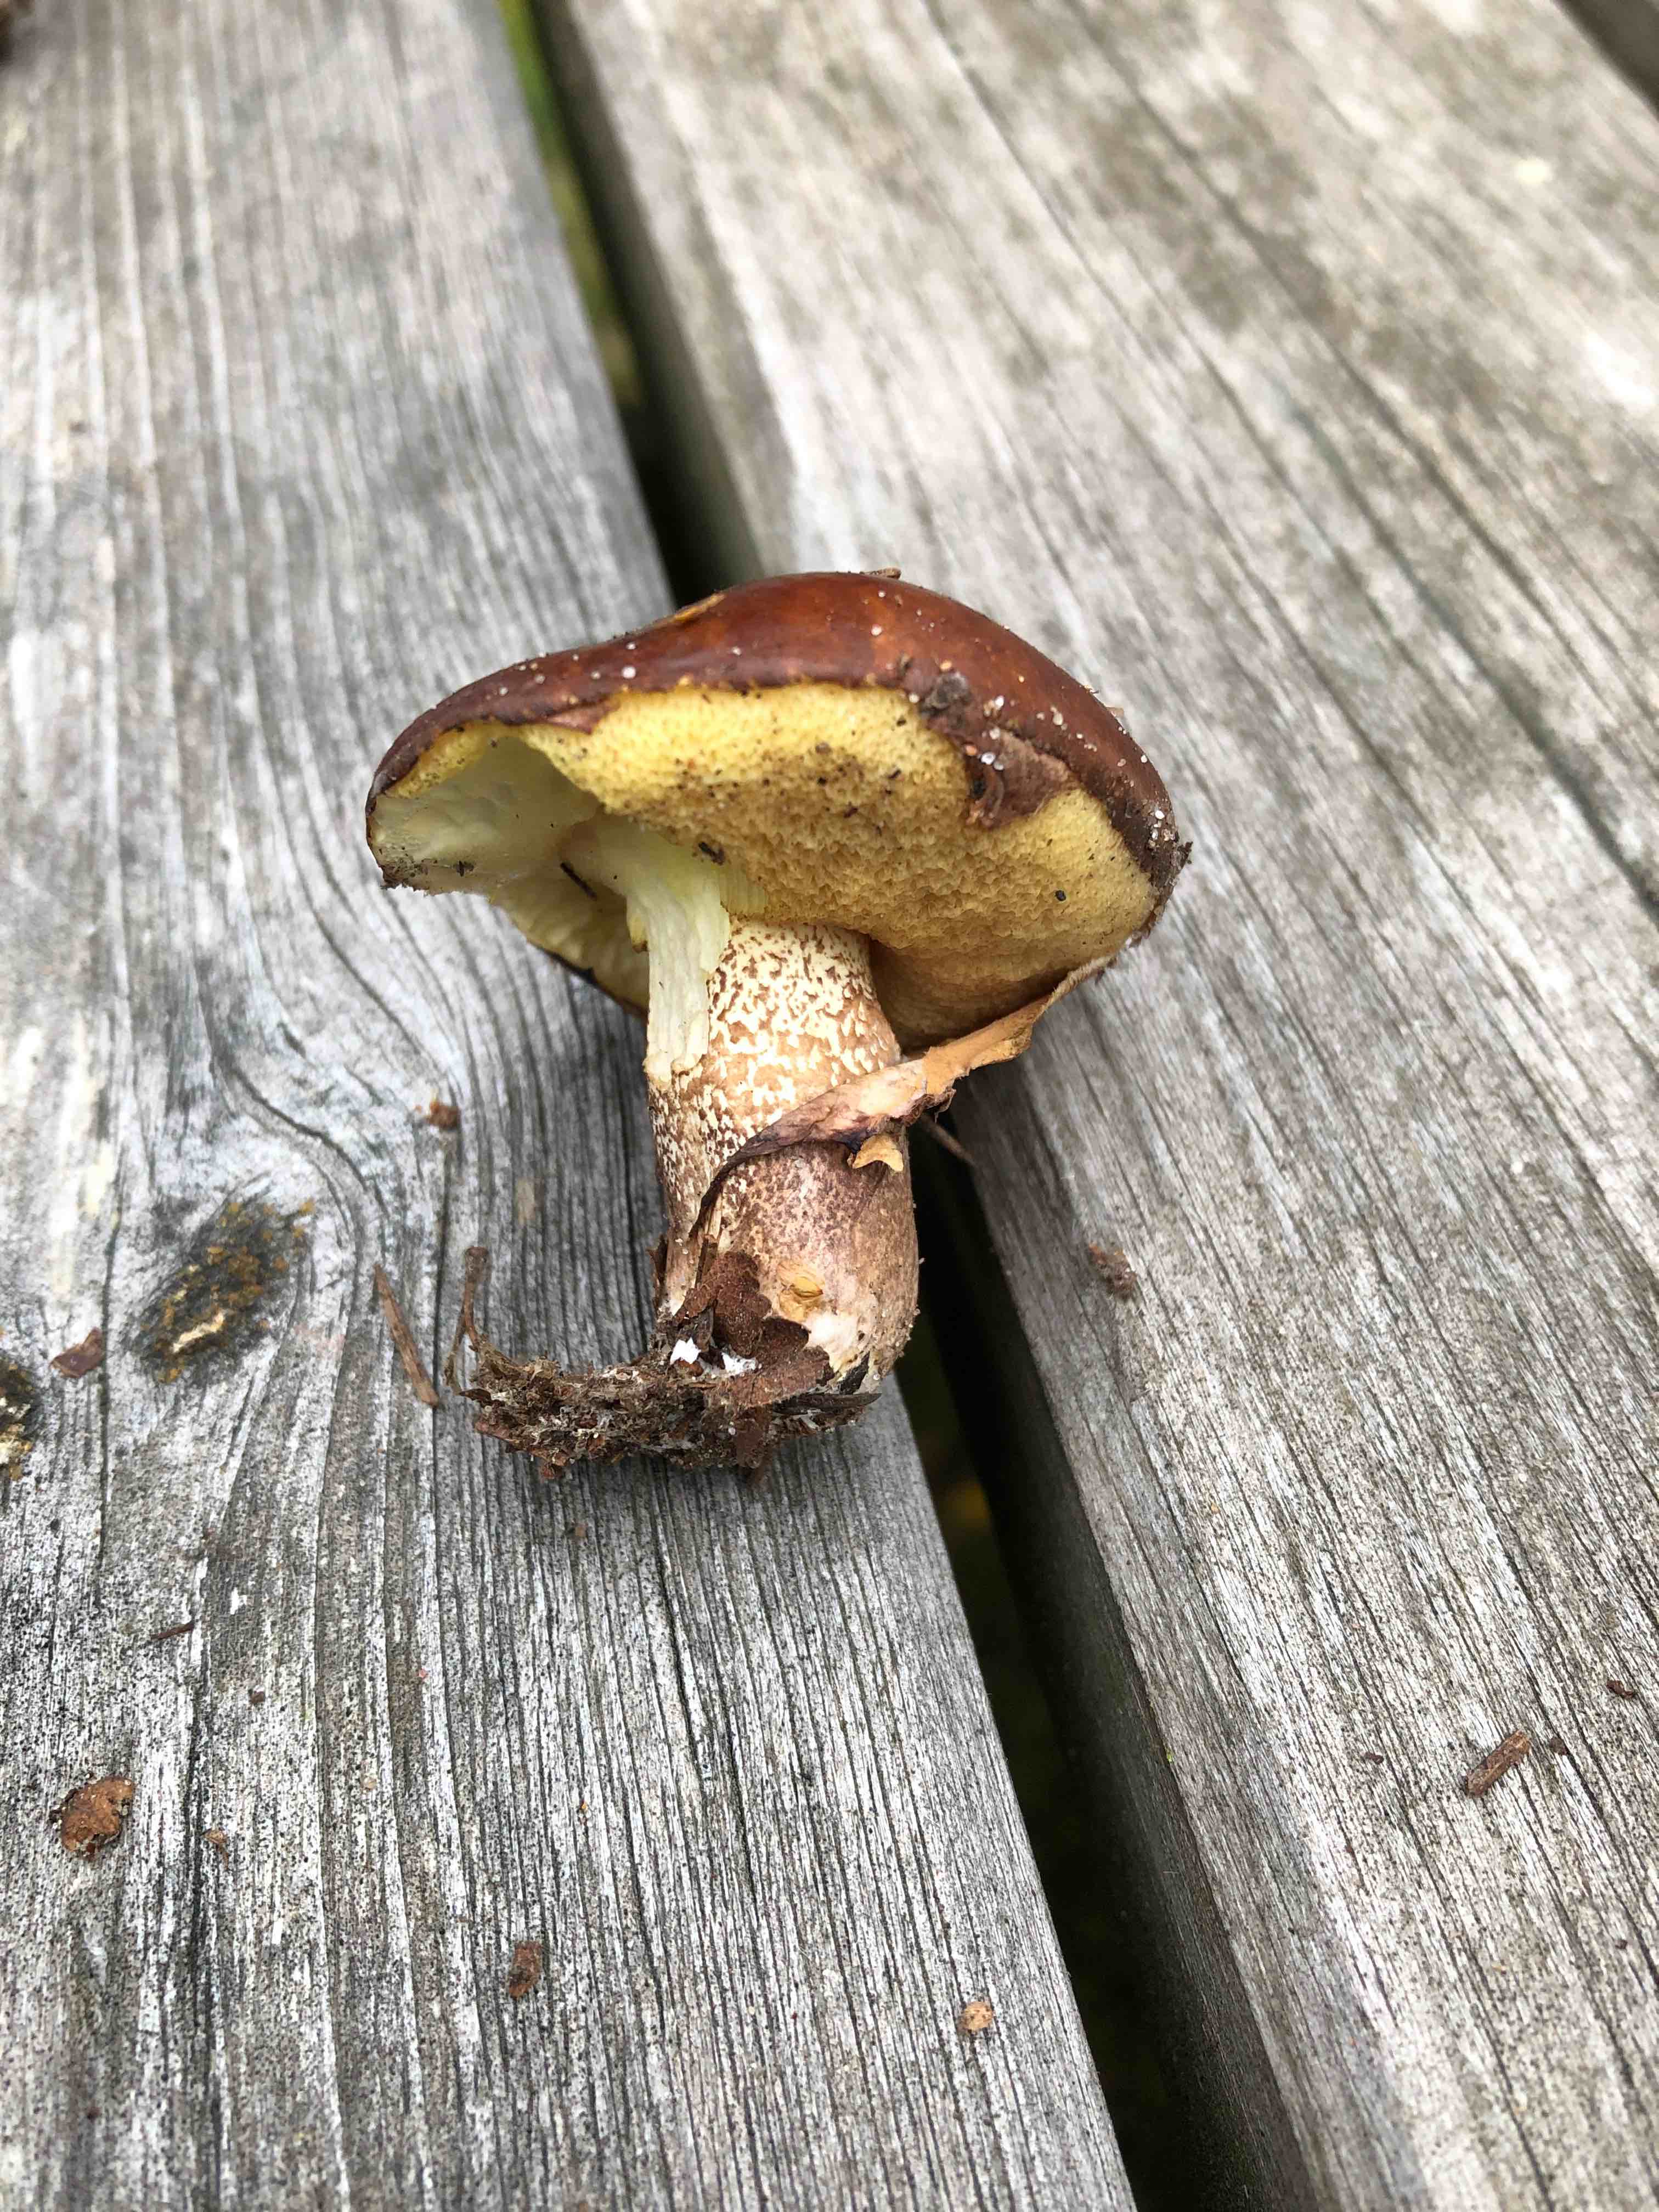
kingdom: Fungi
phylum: Basidiomycota
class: Agaricomycetes
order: Boletales
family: Suillaceae
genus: Suillus
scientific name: Suillus luteus
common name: brungul slimrørhat
